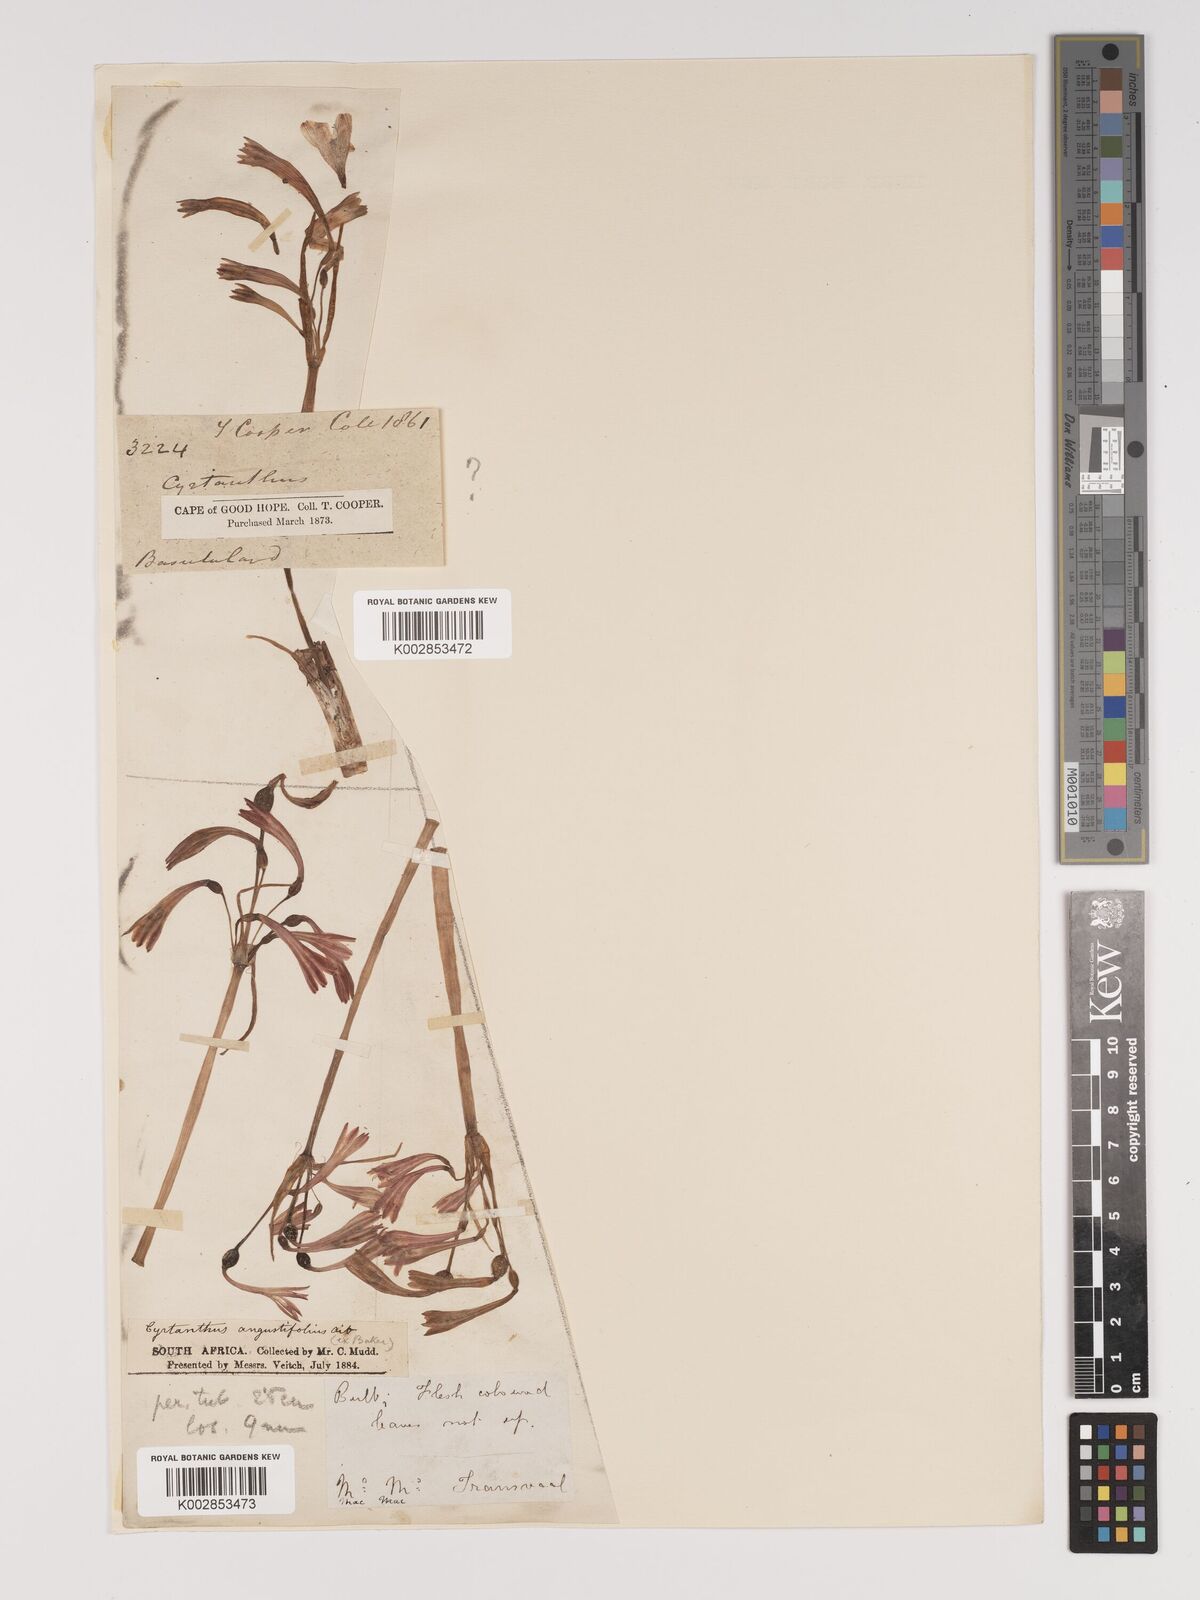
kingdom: Plantae
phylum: Tracheophyta
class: Liliopsida
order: Asparagales
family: Amaryllidaceae
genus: Cyrtanthus
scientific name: Cyrtanthus bicolor
